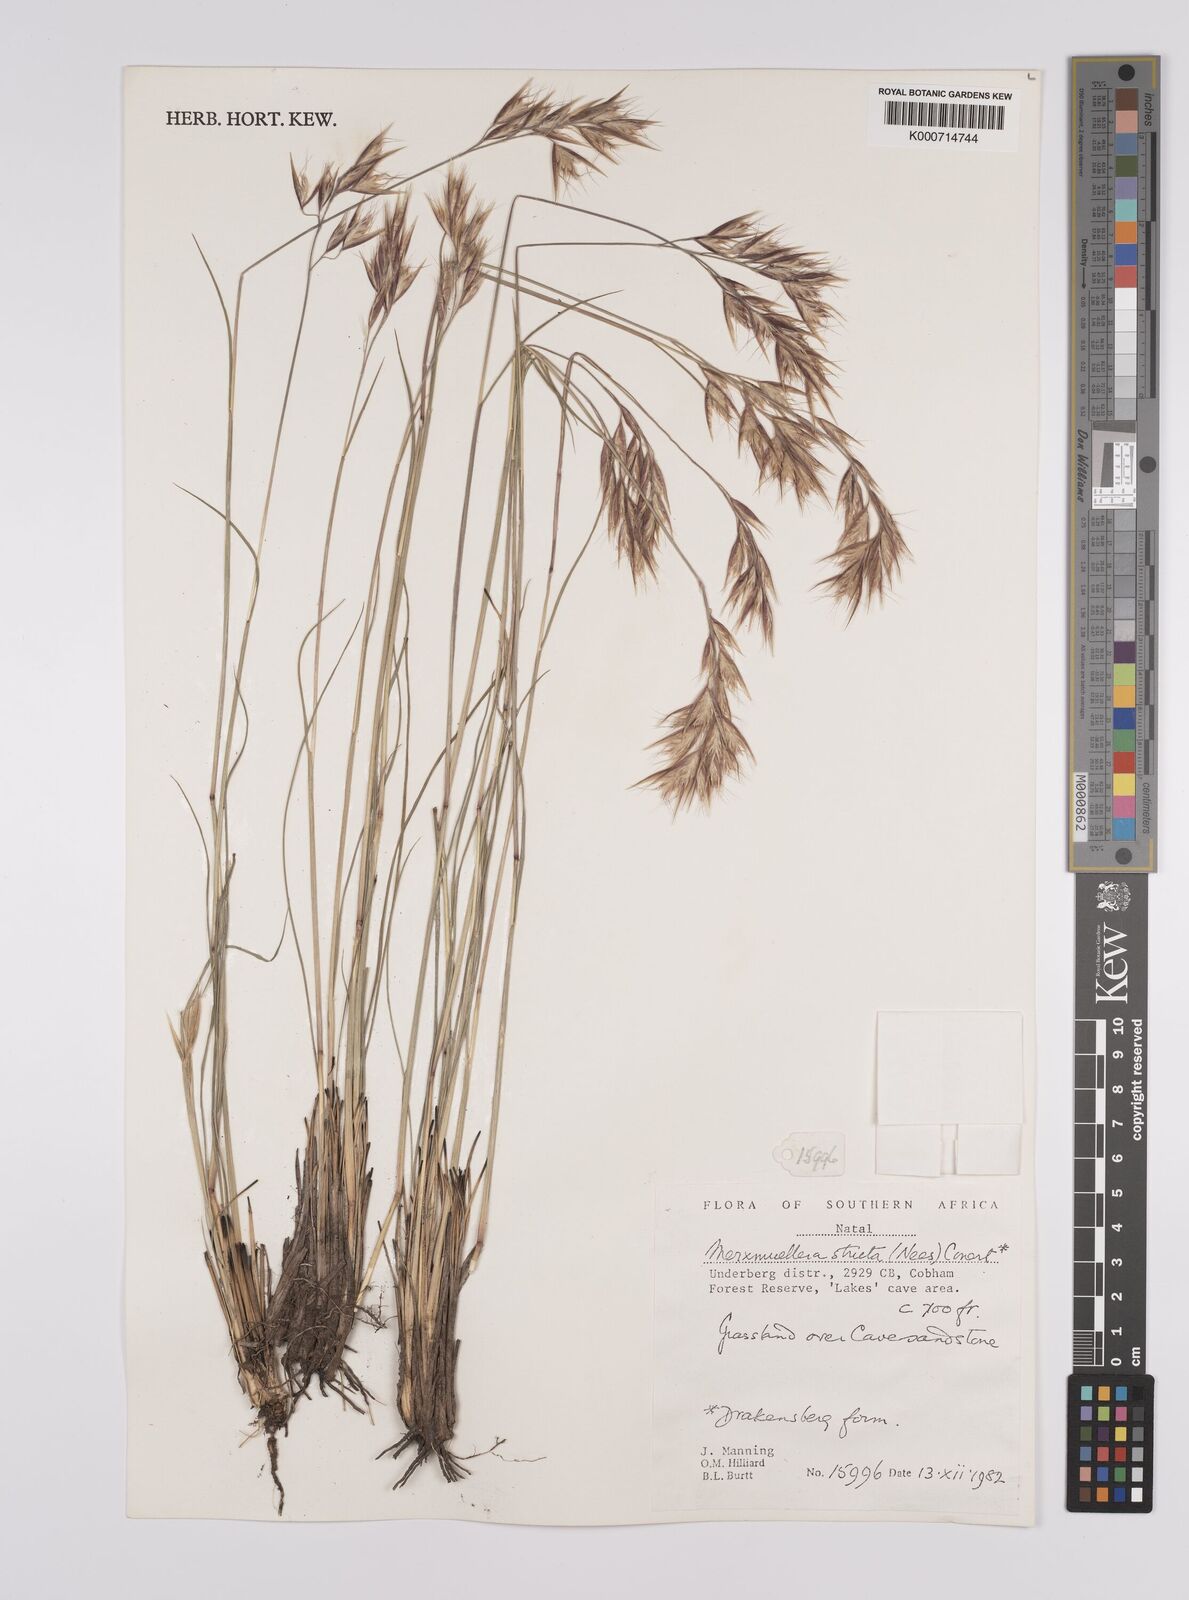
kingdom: Plantae
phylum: Tracheophyta
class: Liliopsida
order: Poales
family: Poaceae
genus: Rytidosperma
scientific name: Rytidosperma
